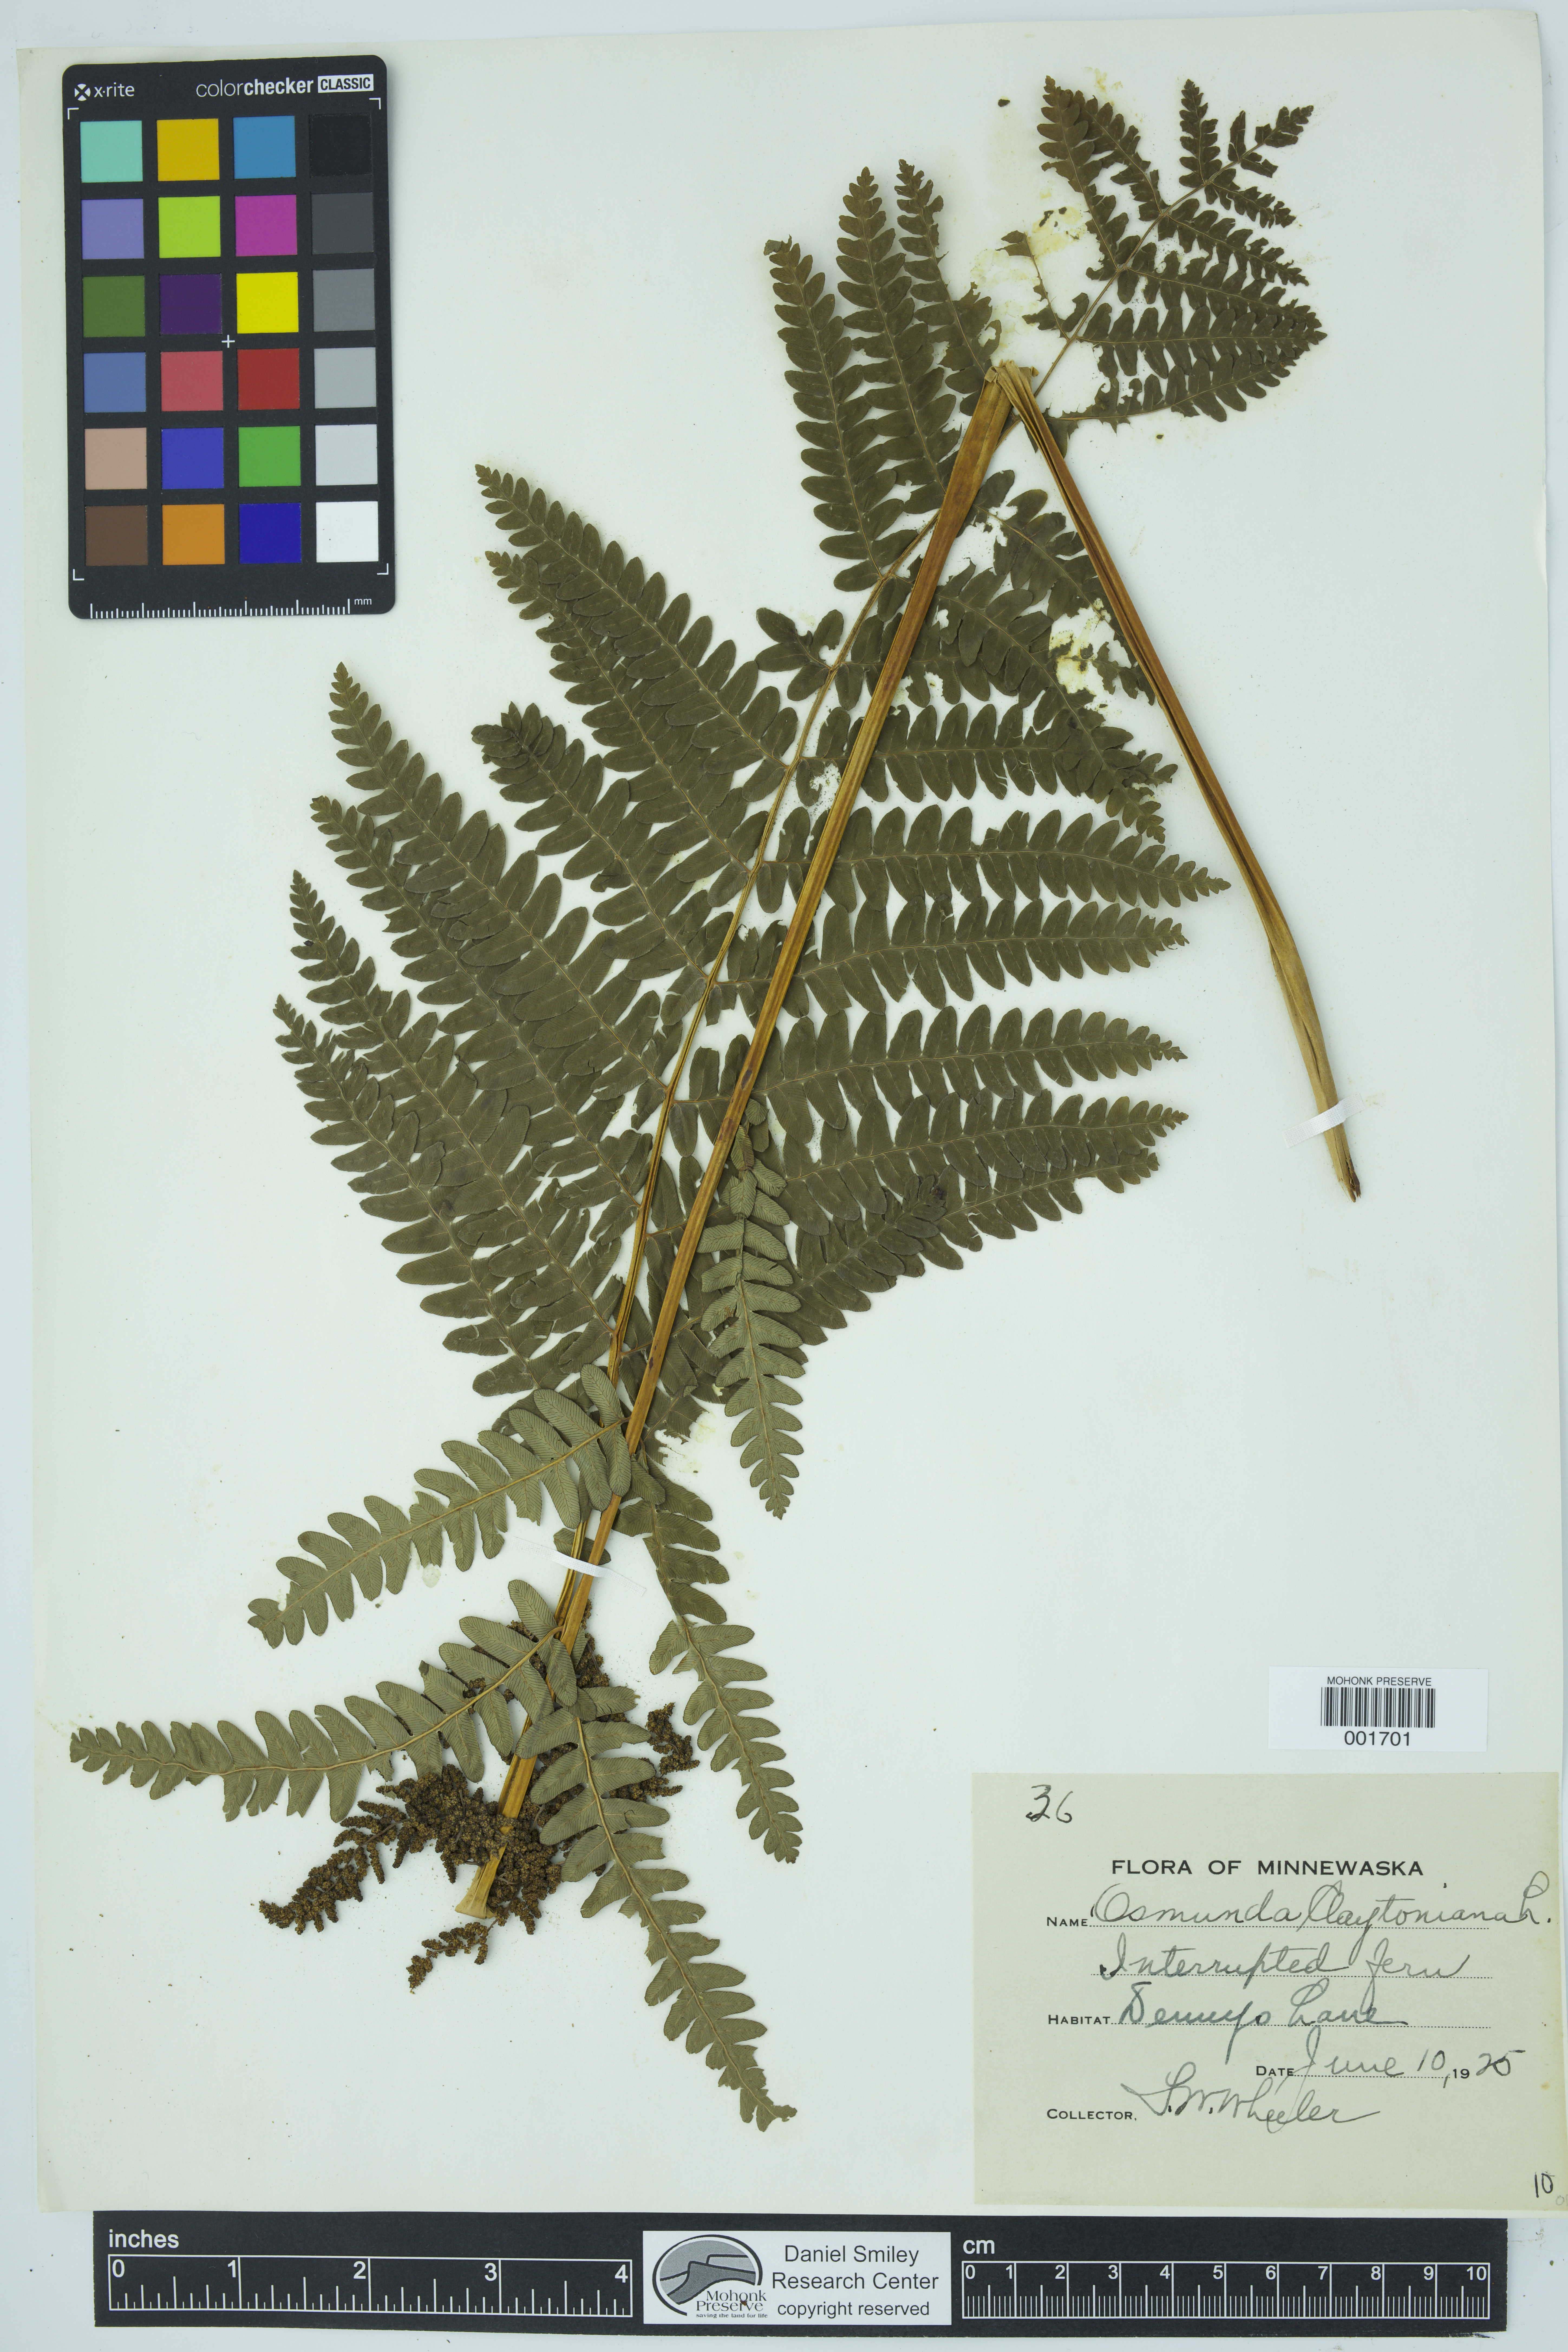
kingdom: Plantae
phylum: Tracheophyta
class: Polypodiopsida
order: Osmundales
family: Osmundaceae
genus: Claytosmunda
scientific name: Claytosmunda claytoniana
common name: Clayton's fern
